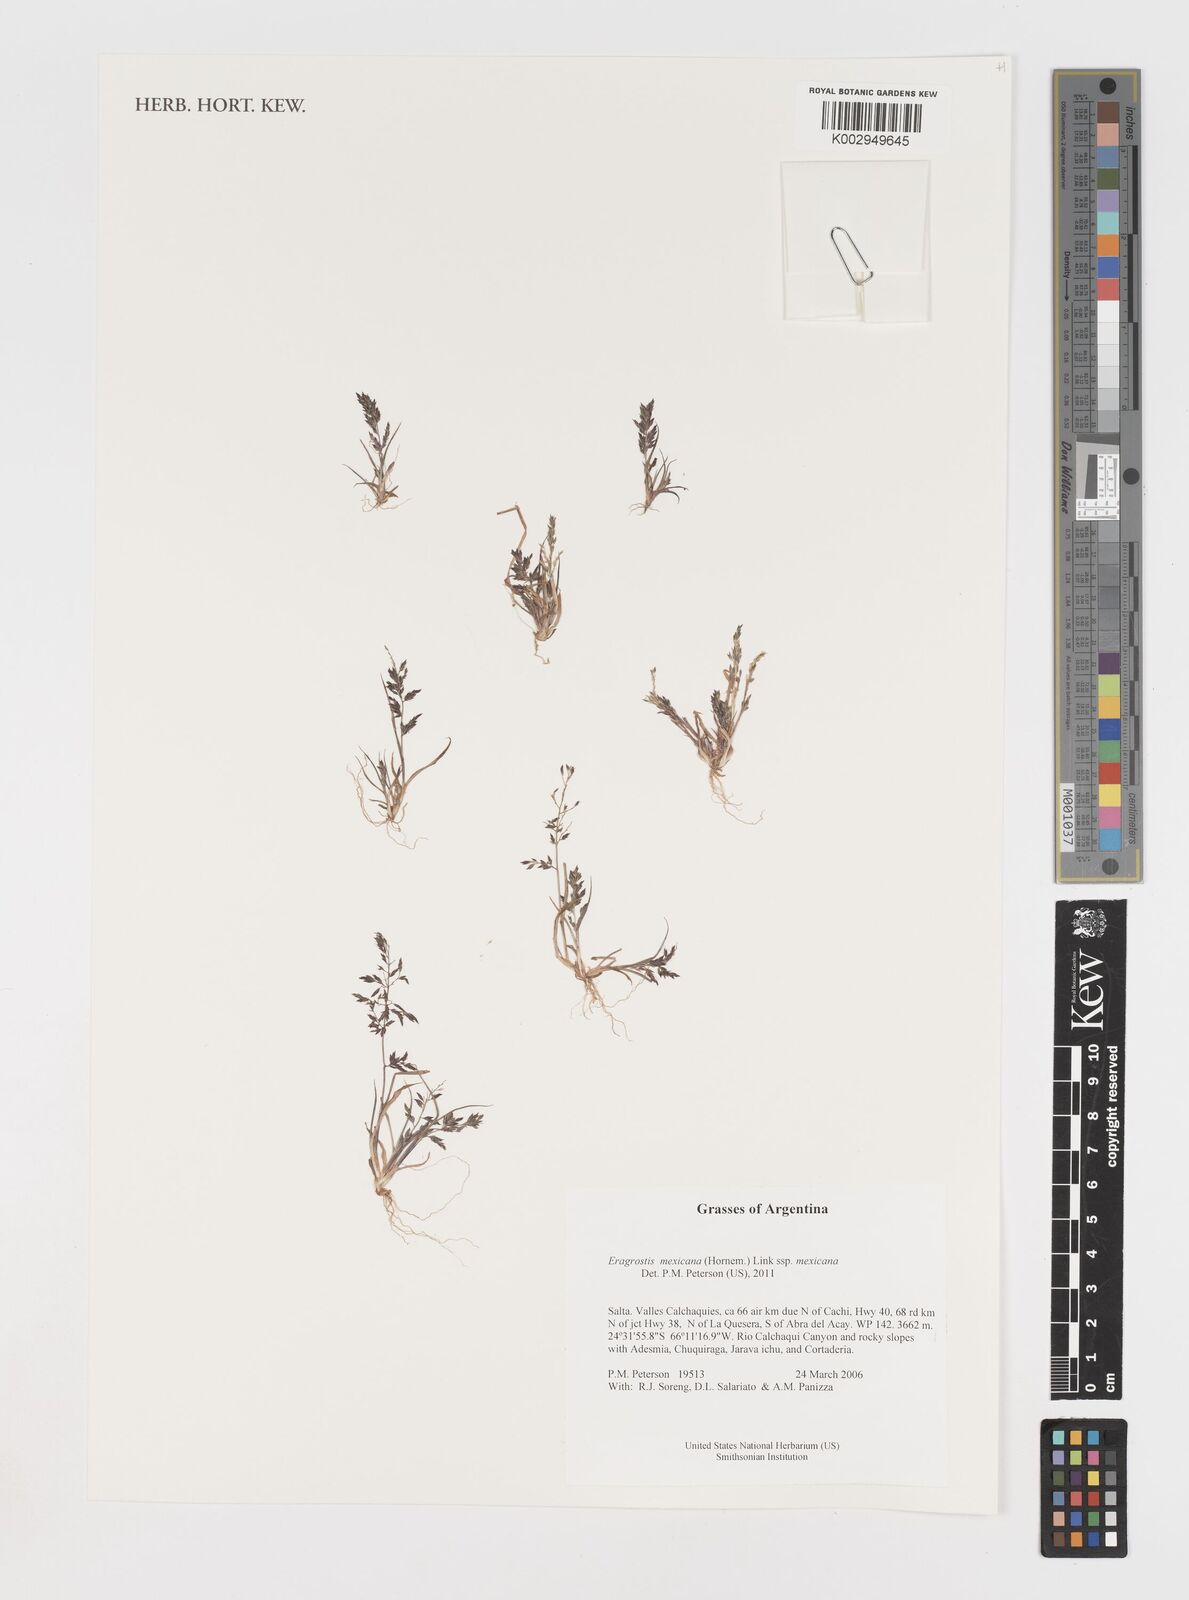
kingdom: Plantae
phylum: Tracheophyta
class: Liliopsida
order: Poales
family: Poaceae
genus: Eragrostis
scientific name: Eragrostis mexicana
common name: Mexican love grass
